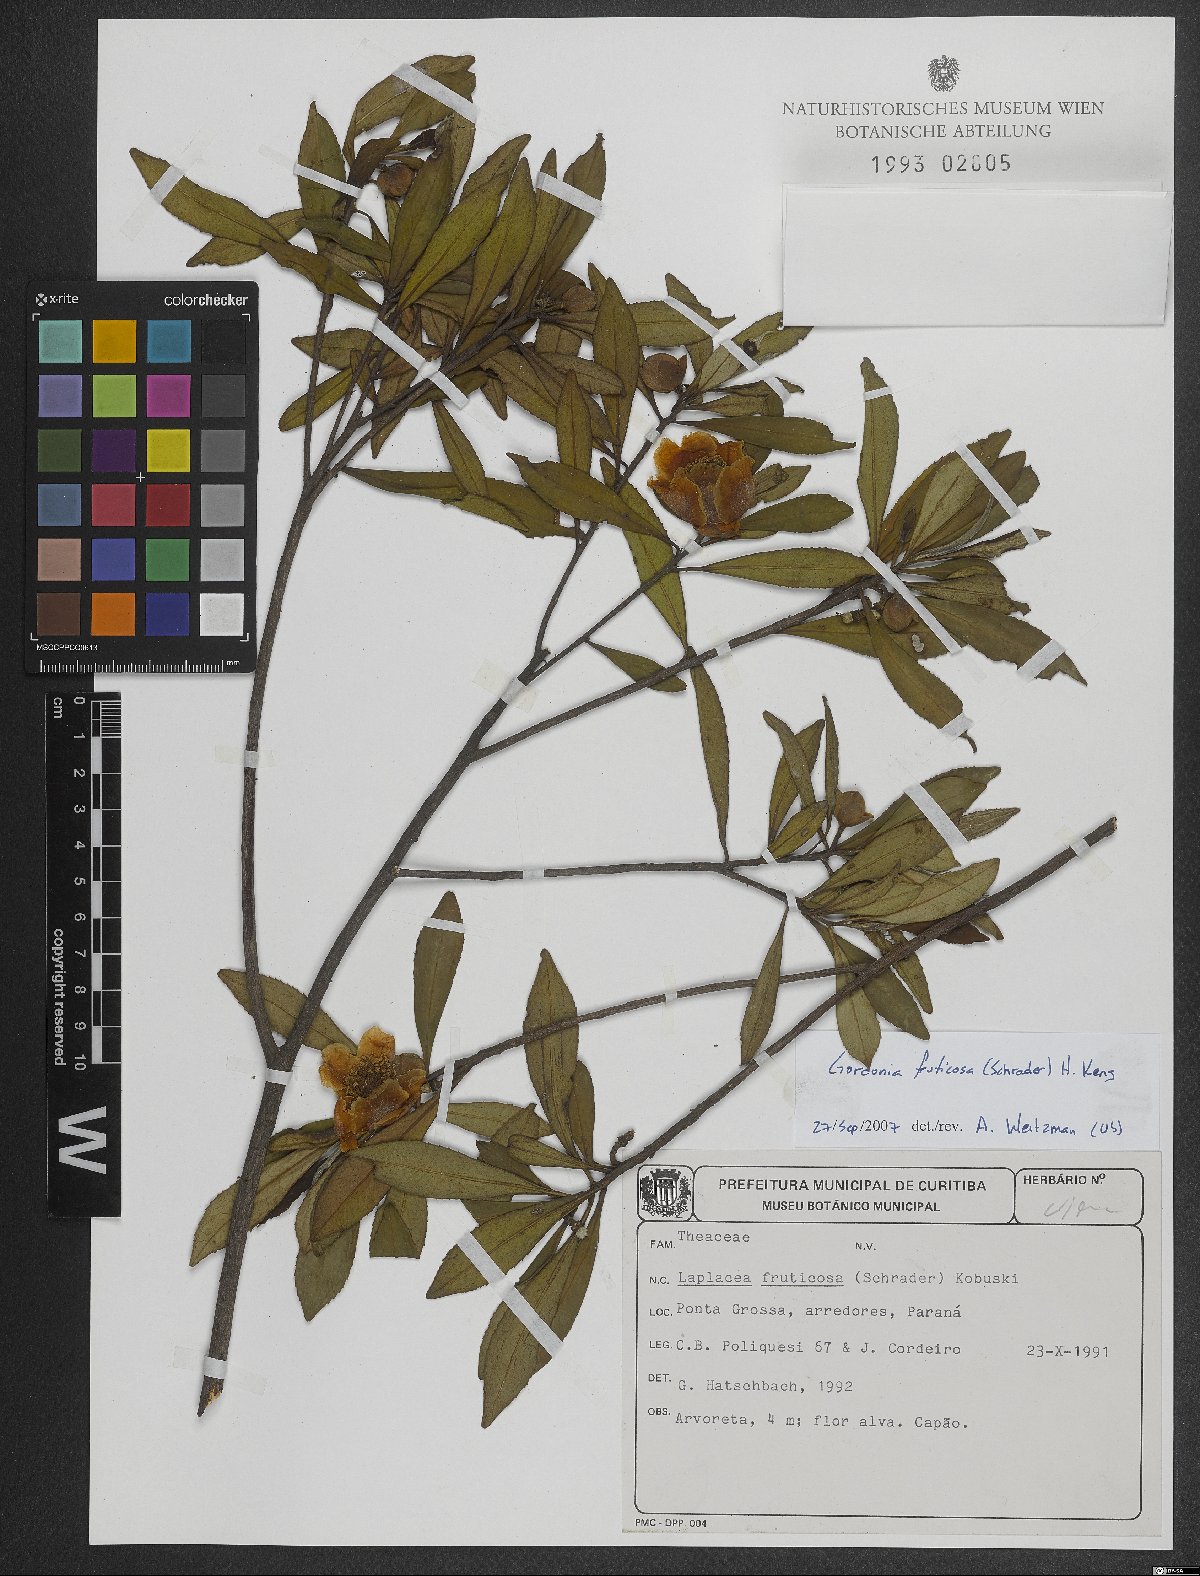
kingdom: Plantae
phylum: Tracheophyta
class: Magnoliopsida
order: Ericales
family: Theaceae
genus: Gordonia
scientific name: Gordonia fruticosa
